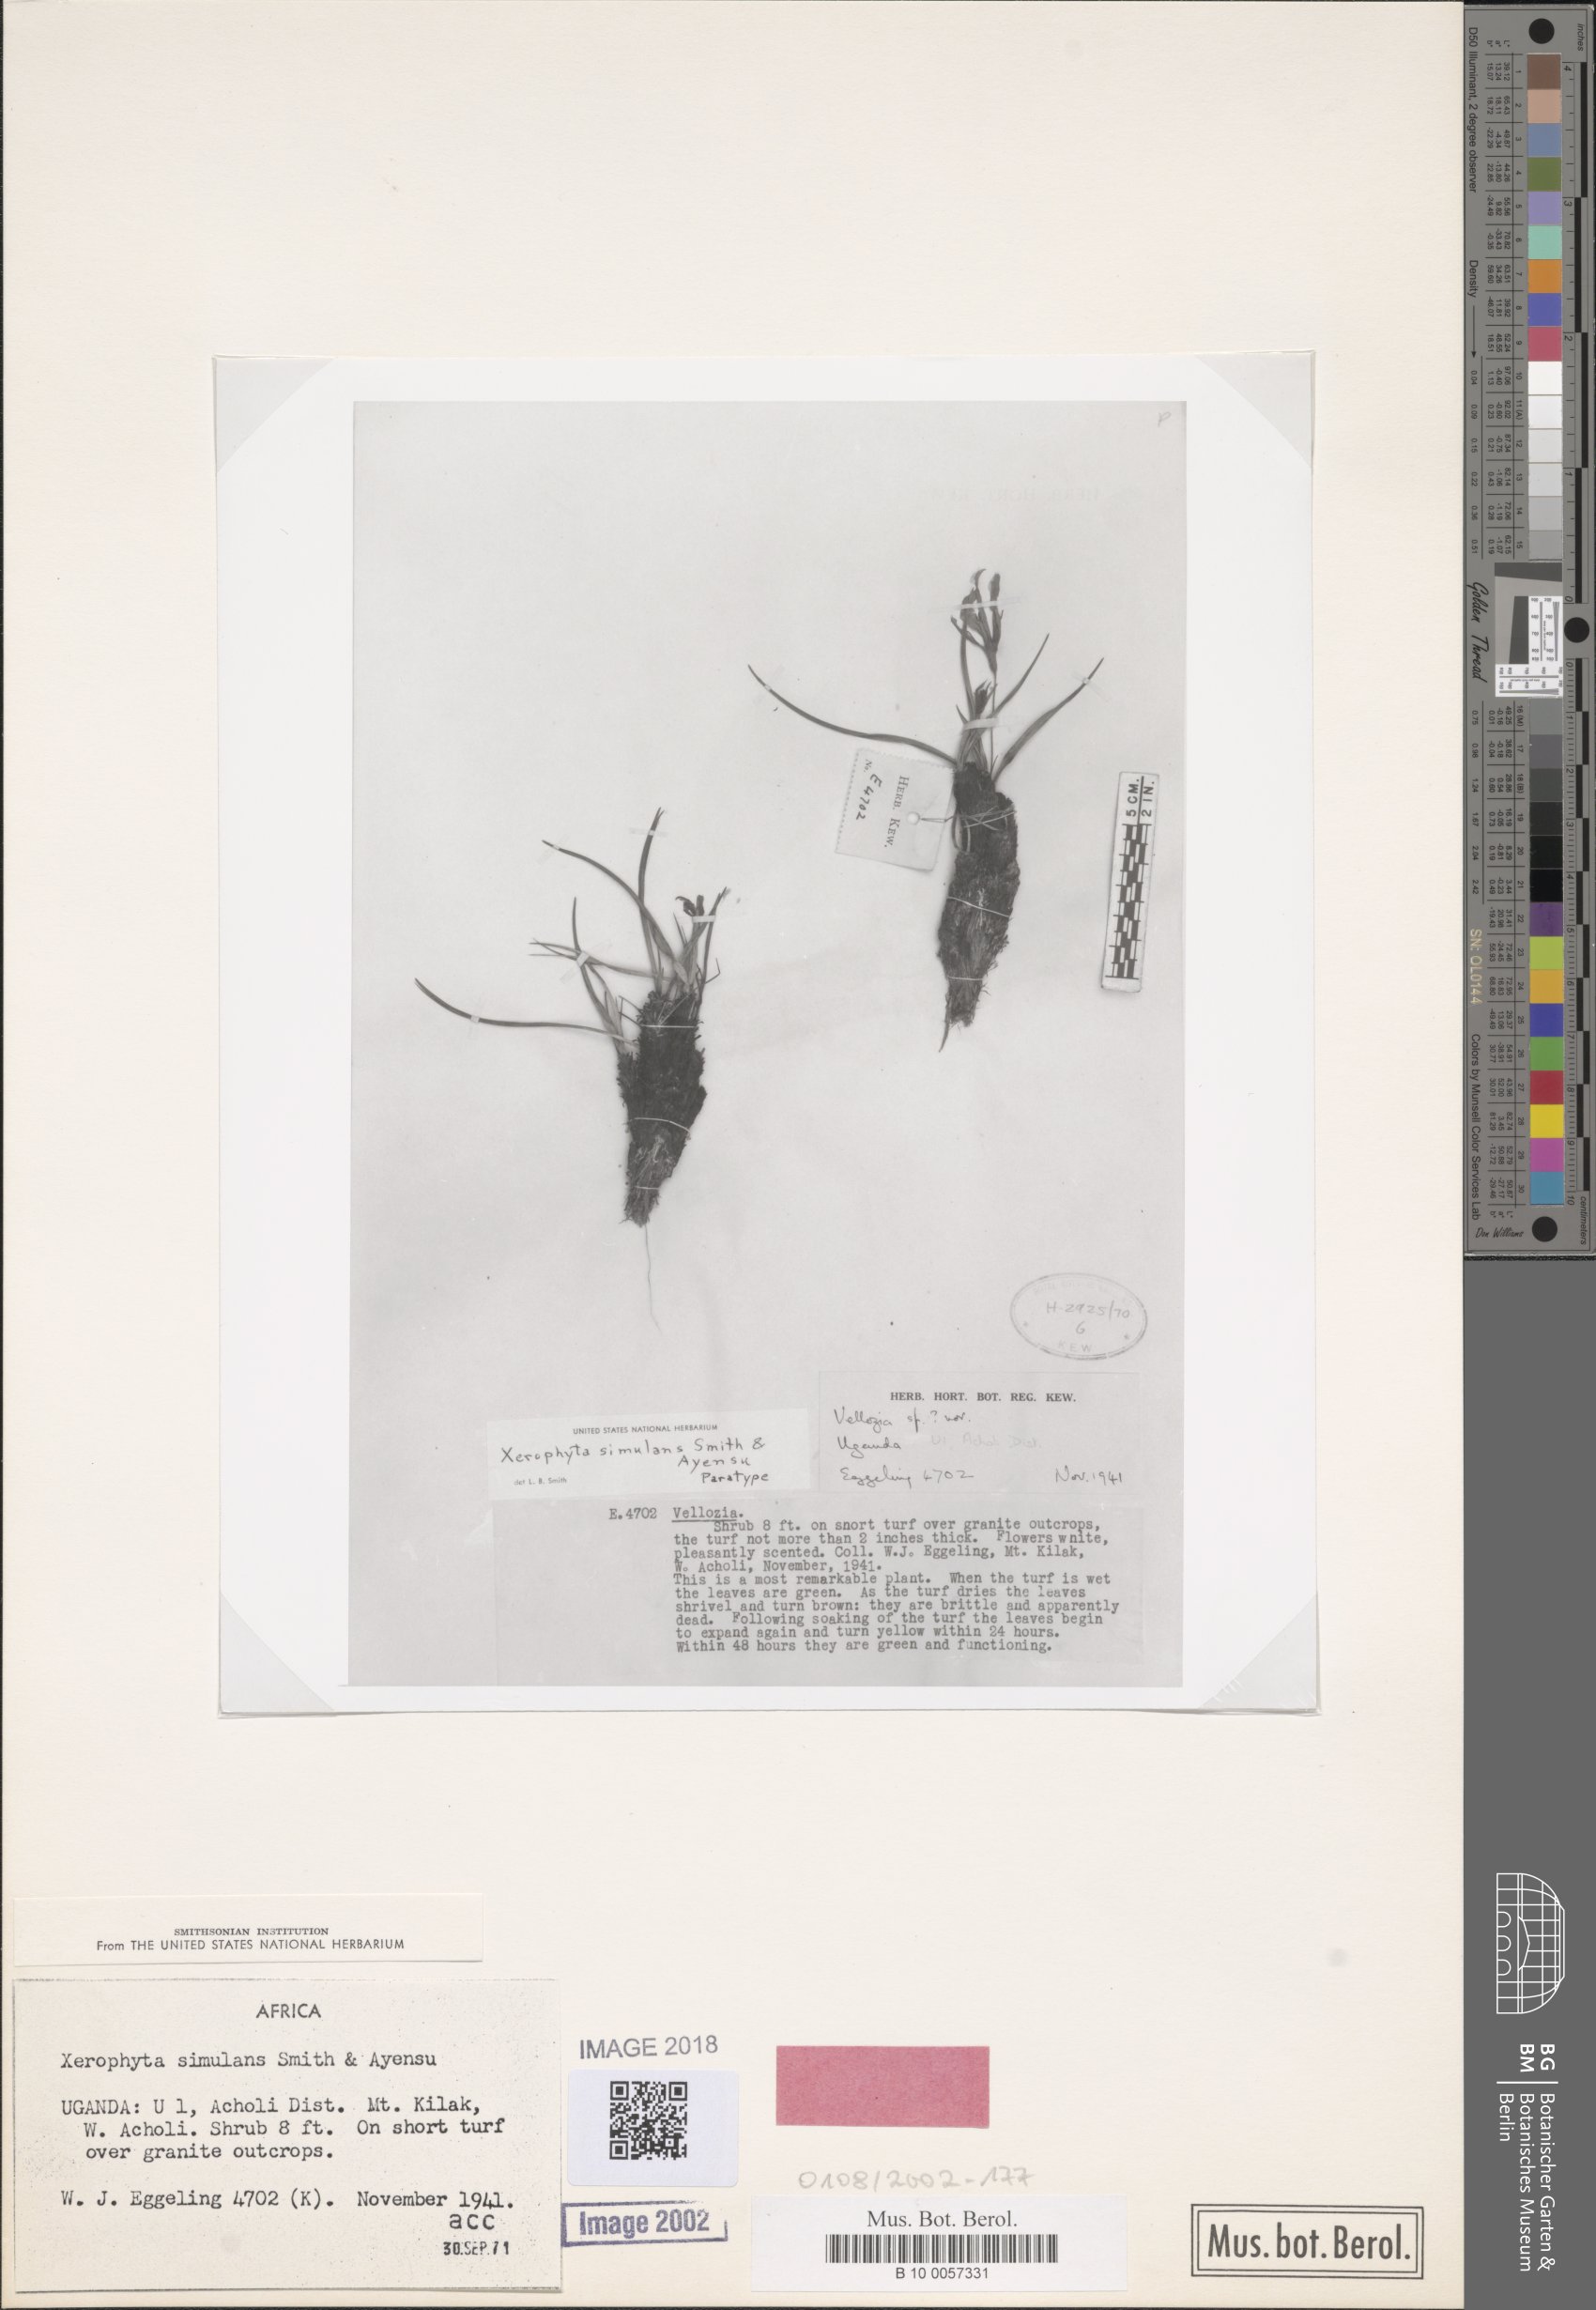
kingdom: Plantae
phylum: Tracheophyta
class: Liliopsida
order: Pandanales
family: Velloziaceae
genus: Xerophyta
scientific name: Xerophyta simulans
